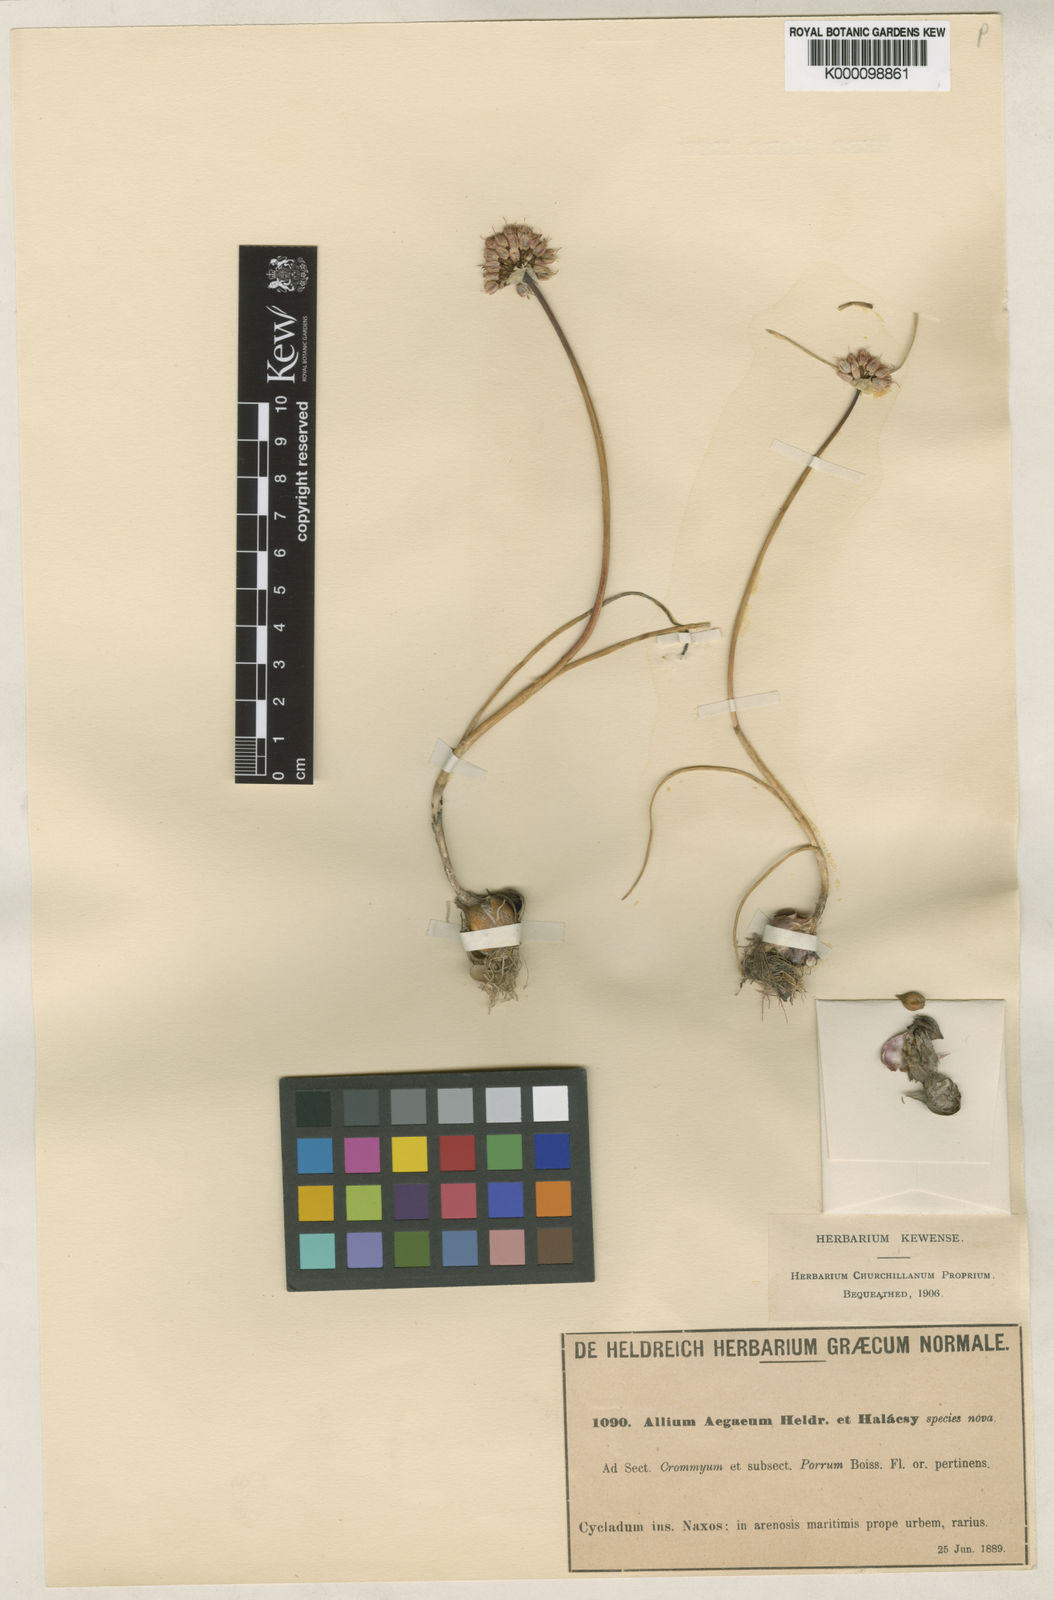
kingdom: Plantae
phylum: Tracheophyta
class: Liliopsida
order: Asparagales
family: Amaryllidaceae
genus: Allium
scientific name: Allium sphaerocephalon
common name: Round-headed leek
